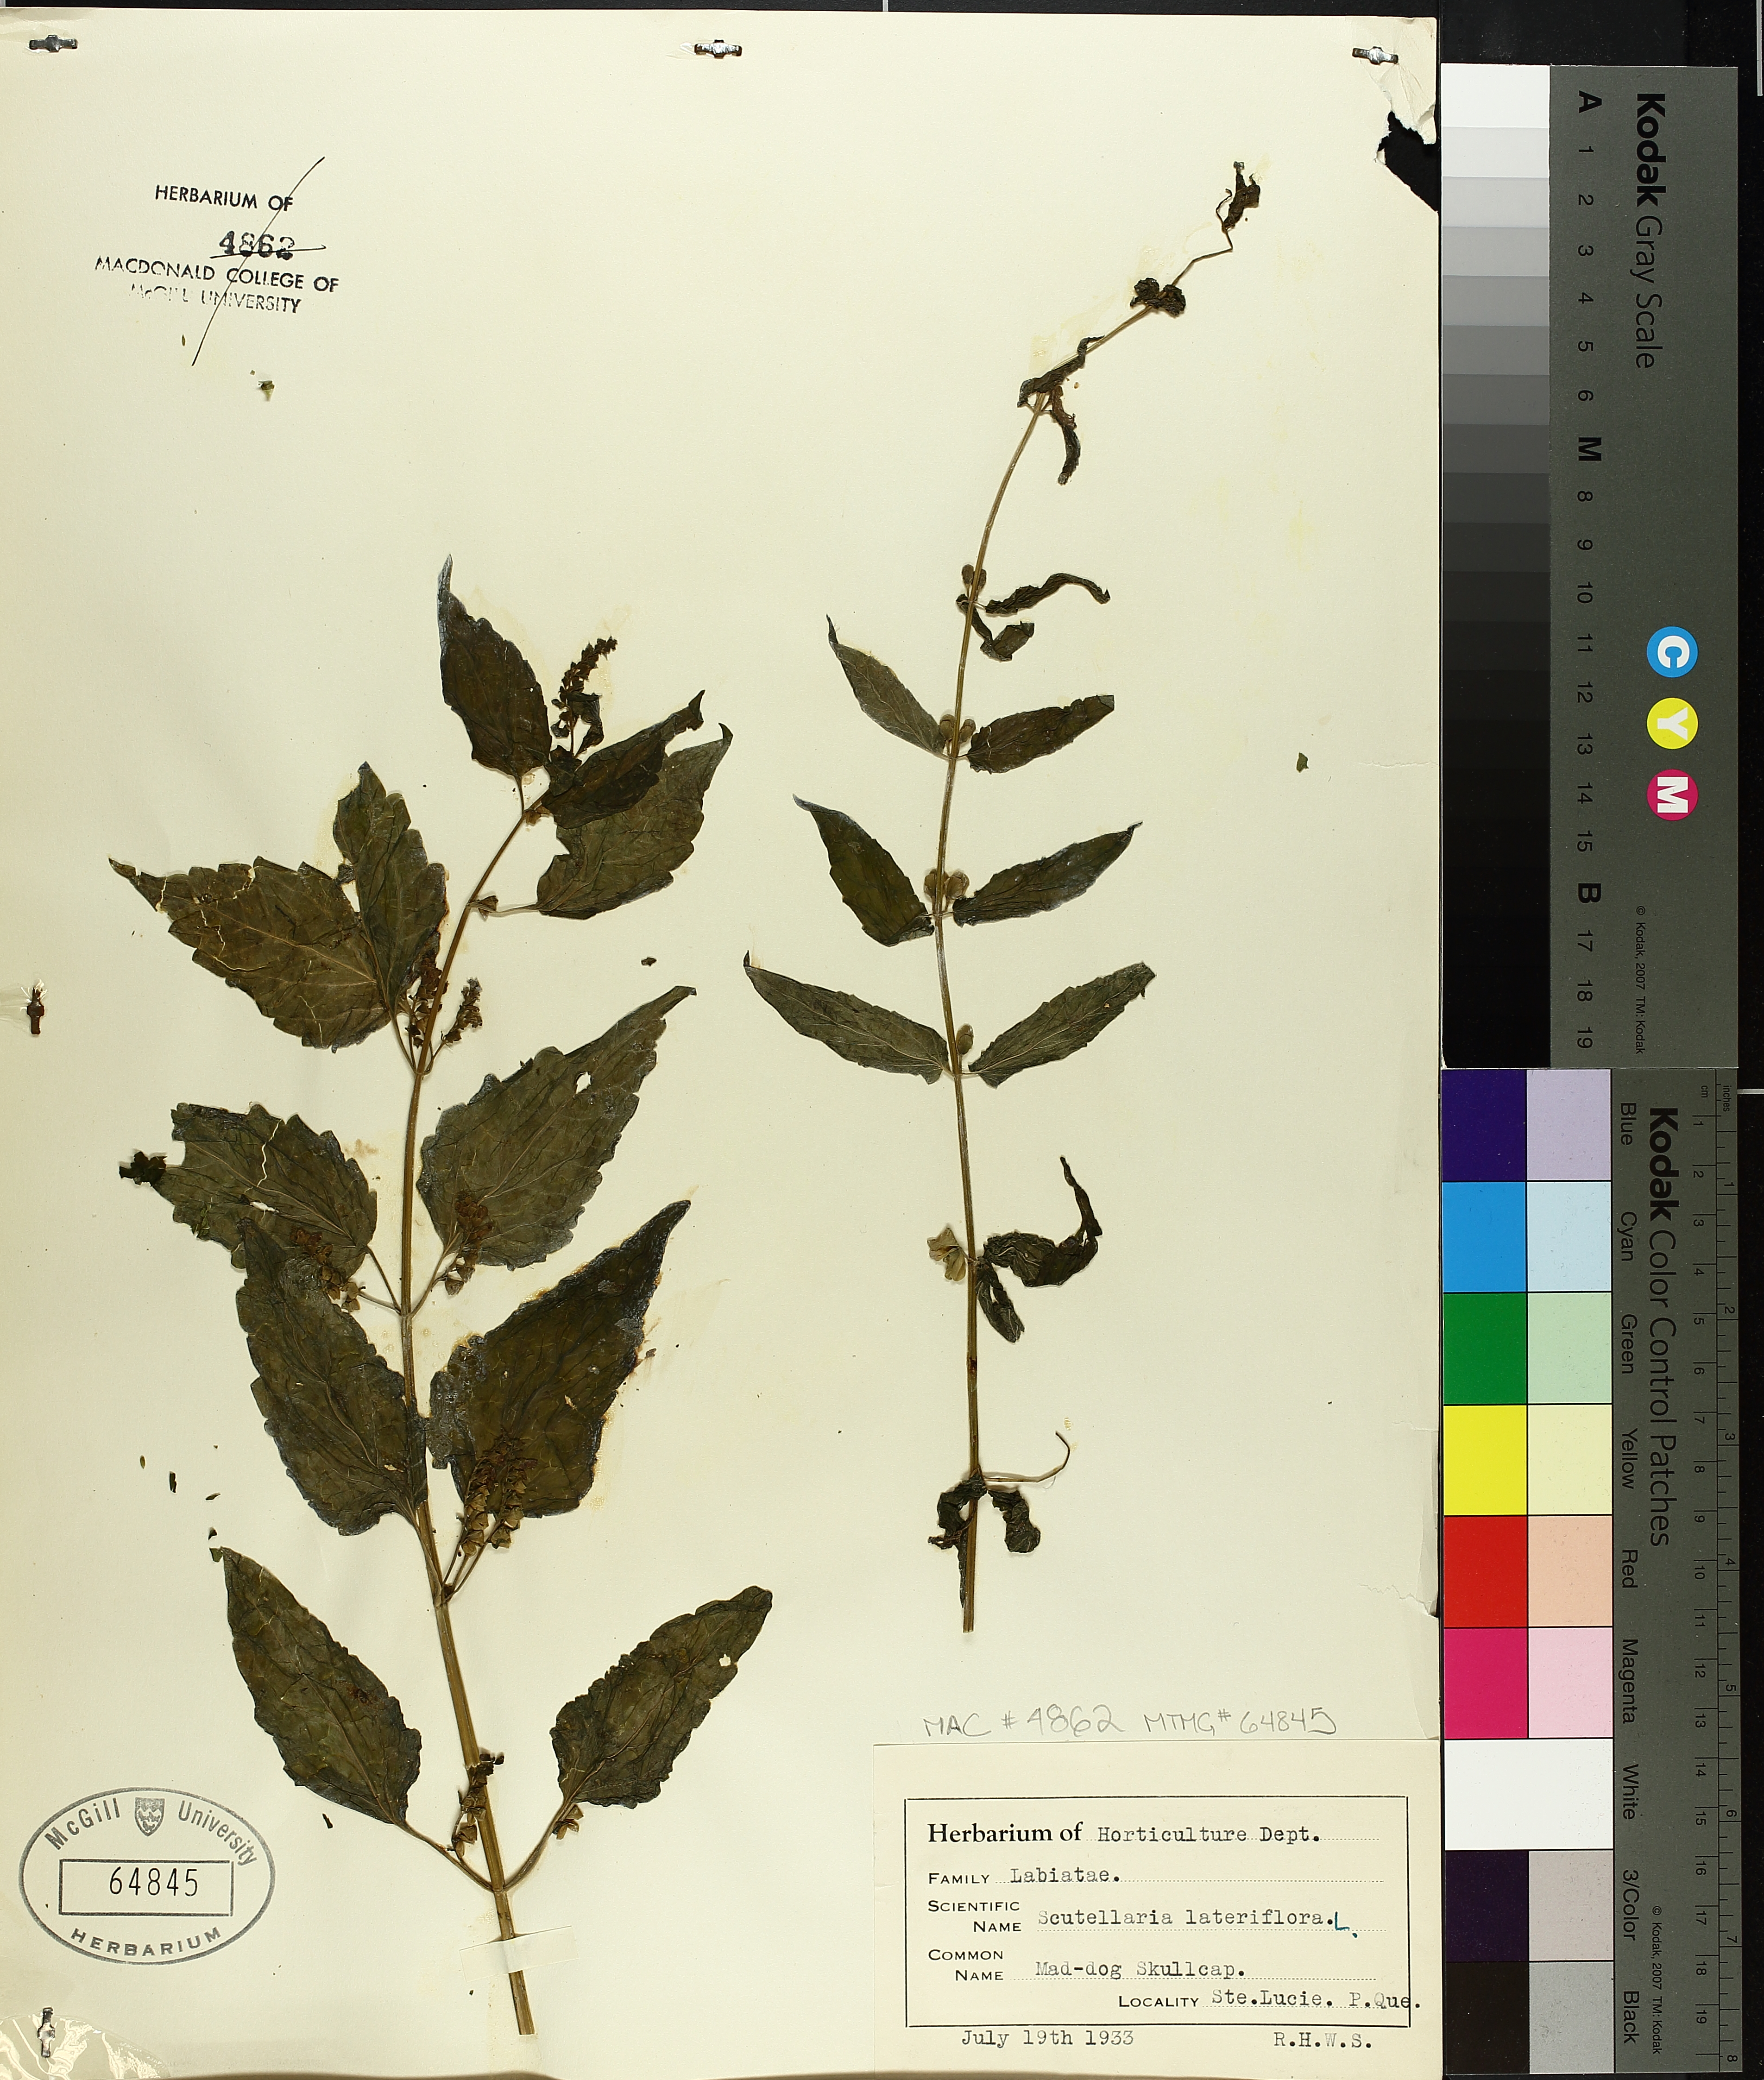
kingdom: Plantae
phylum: Tracheophyta
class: Magnoliopsida
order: Lamiales
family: Lamiaceae
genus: Scutellaria
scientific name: Scutellaria lateriflora
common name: Blue skullcap
